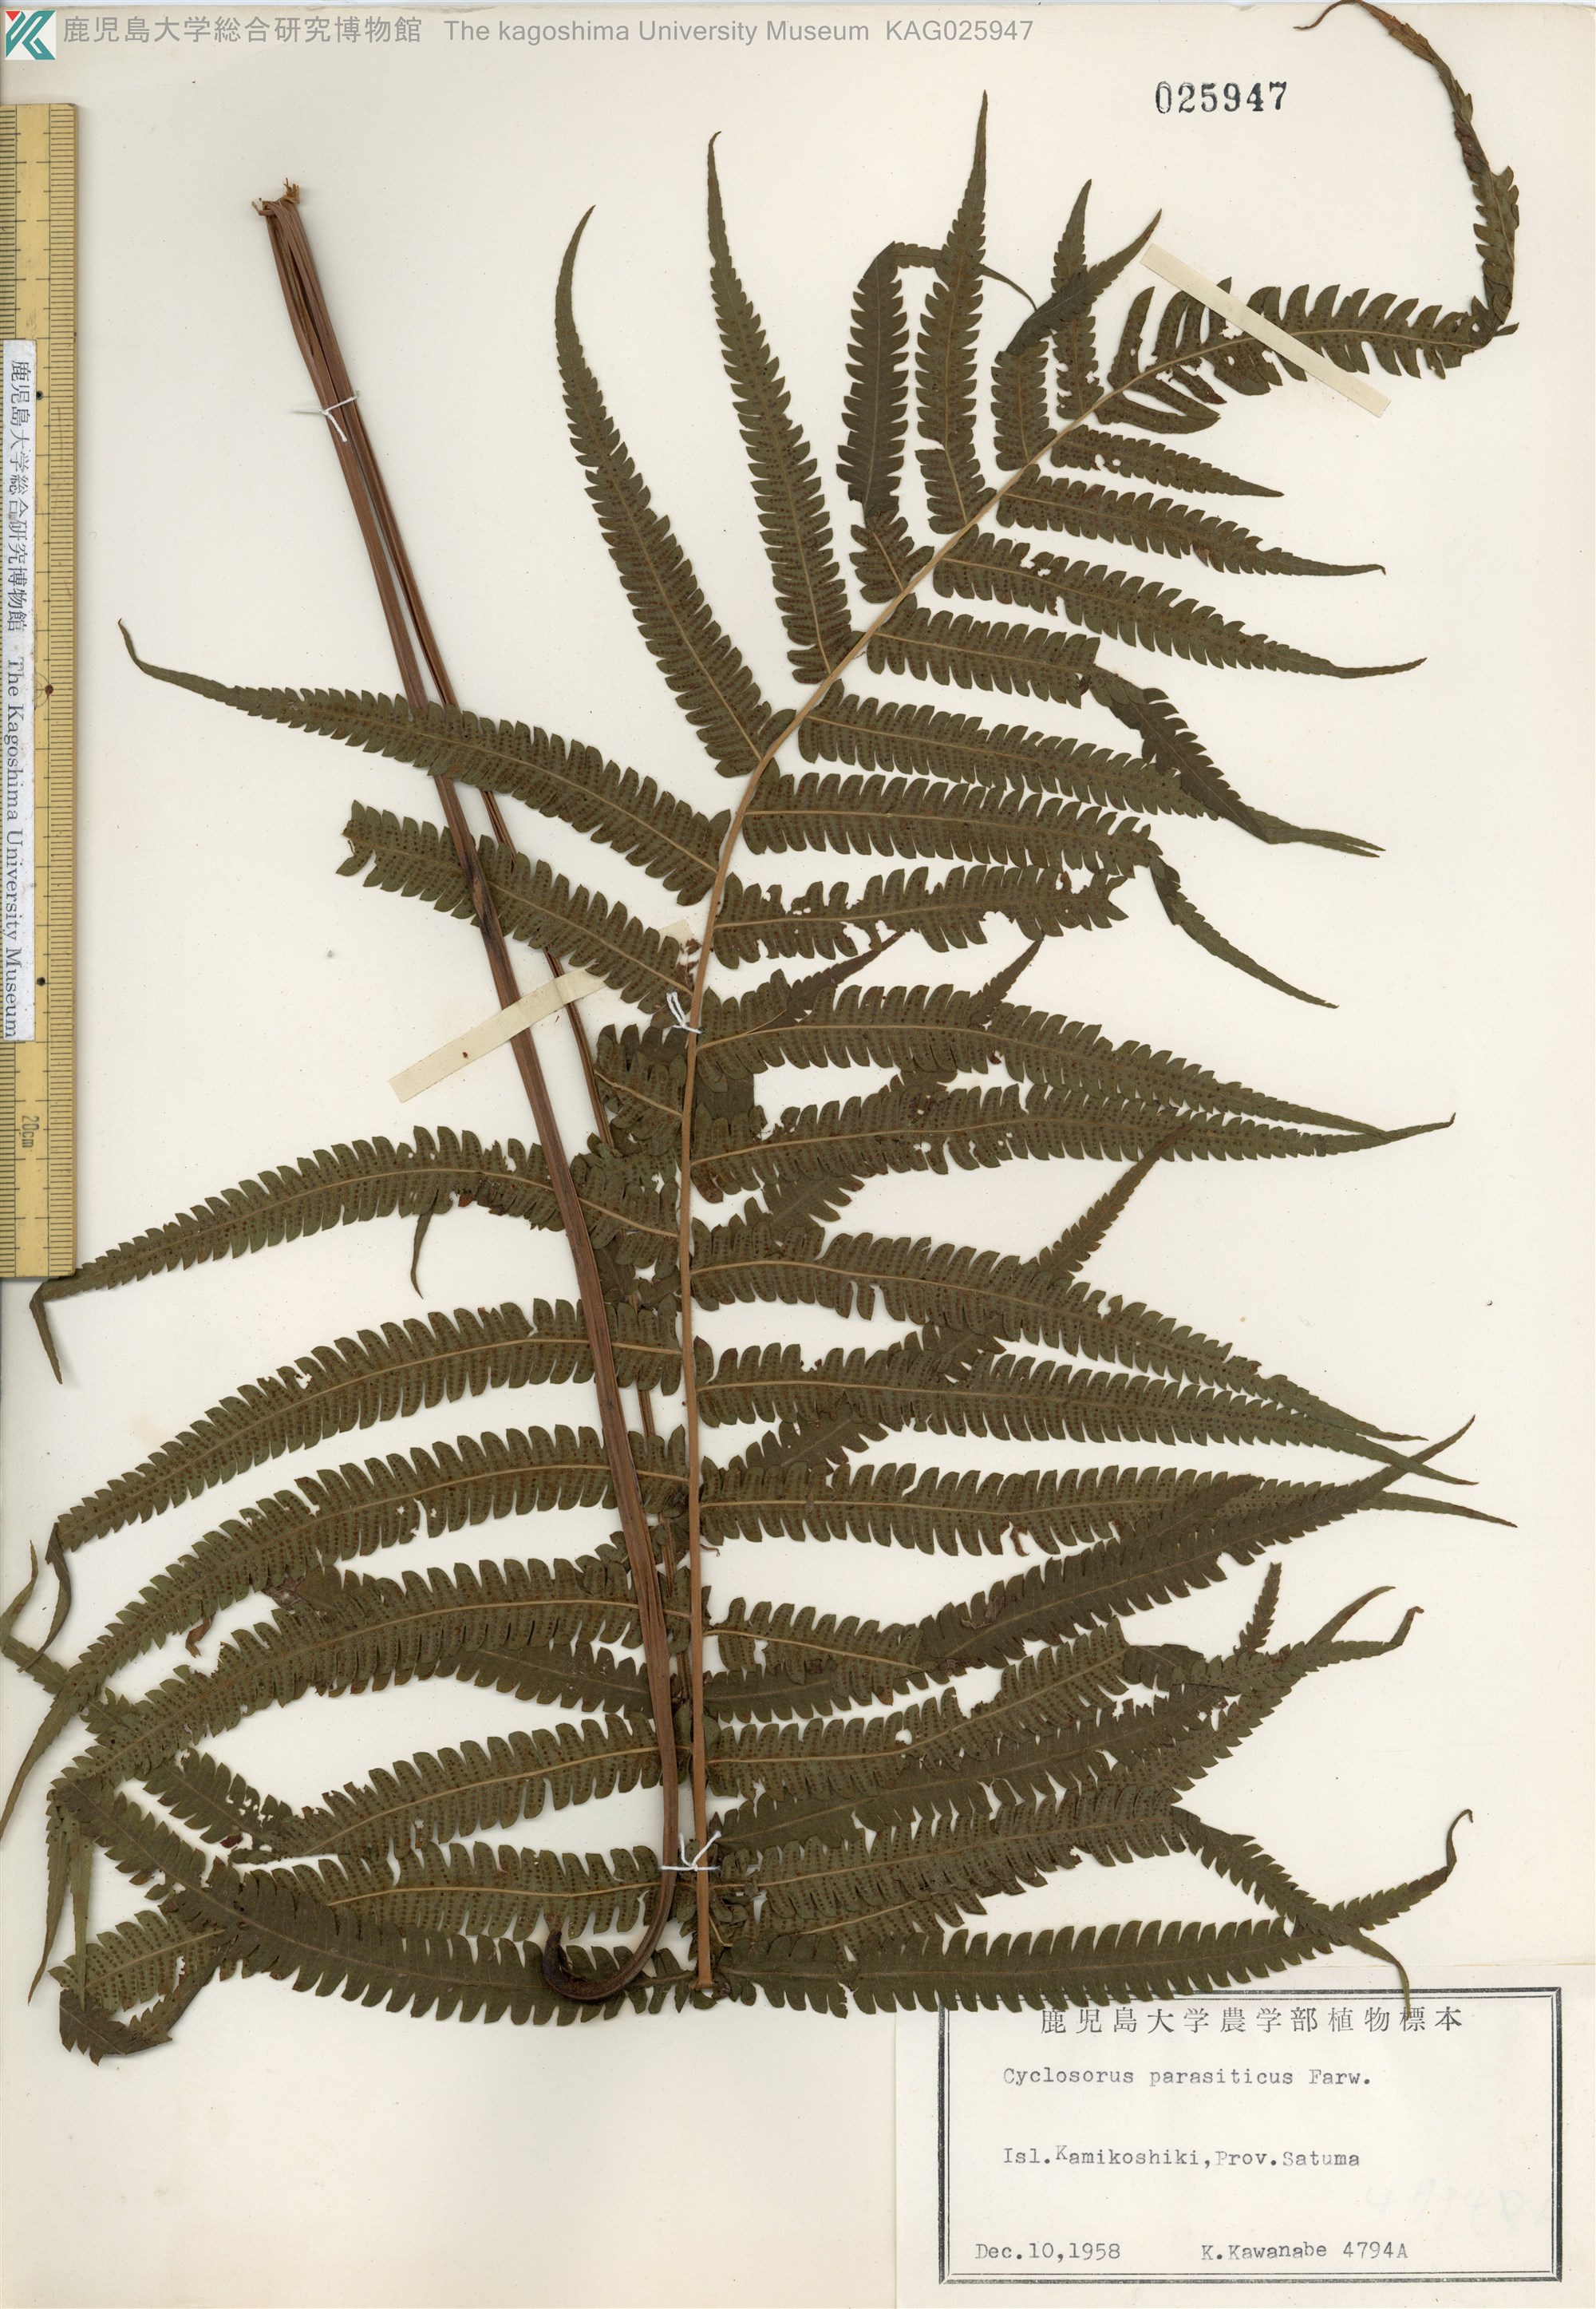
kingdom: Plantae
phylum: Tracheophyta
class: Polypodiopsida
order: Polypodiales
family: Thelypteridaceae
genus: Christella
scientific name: Christella parasitica
